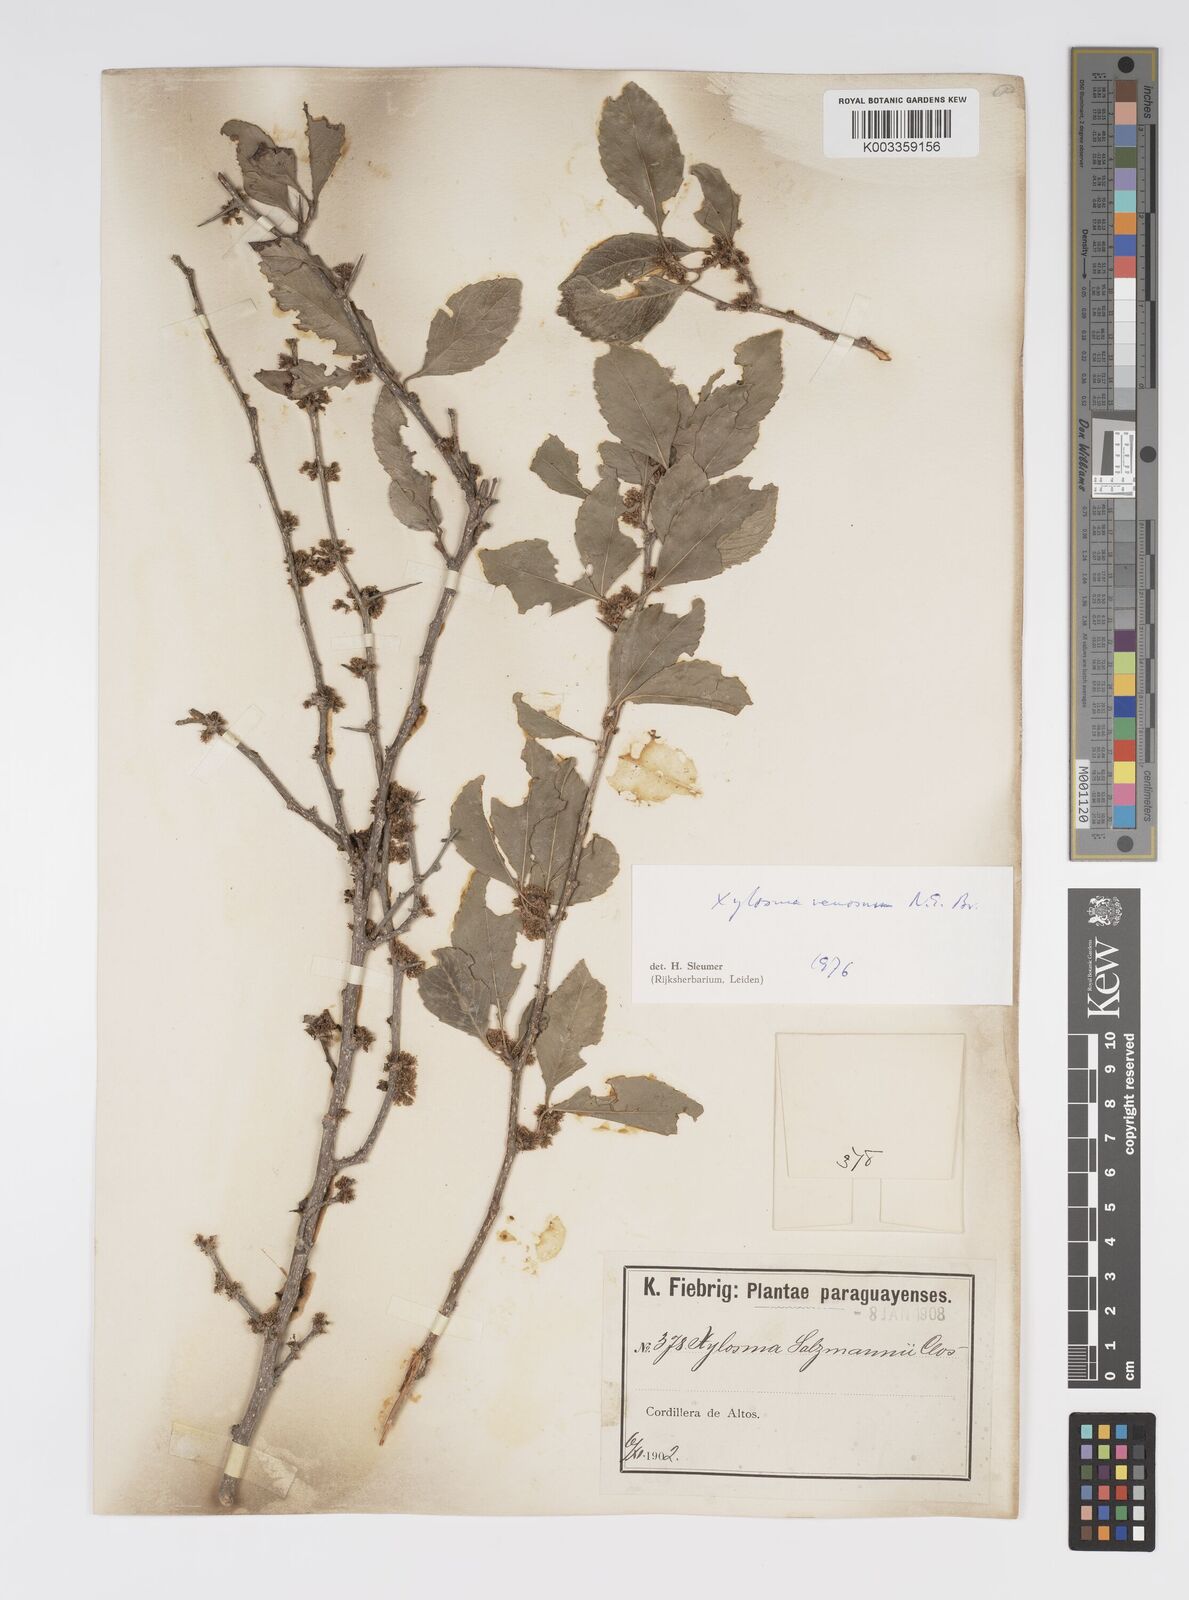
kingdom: Plantae
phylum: Tracheophyta
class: Magnoliopsida
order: Malpighiales
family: Salicaceae
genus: Xylosma
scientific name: Xylosma venosa
